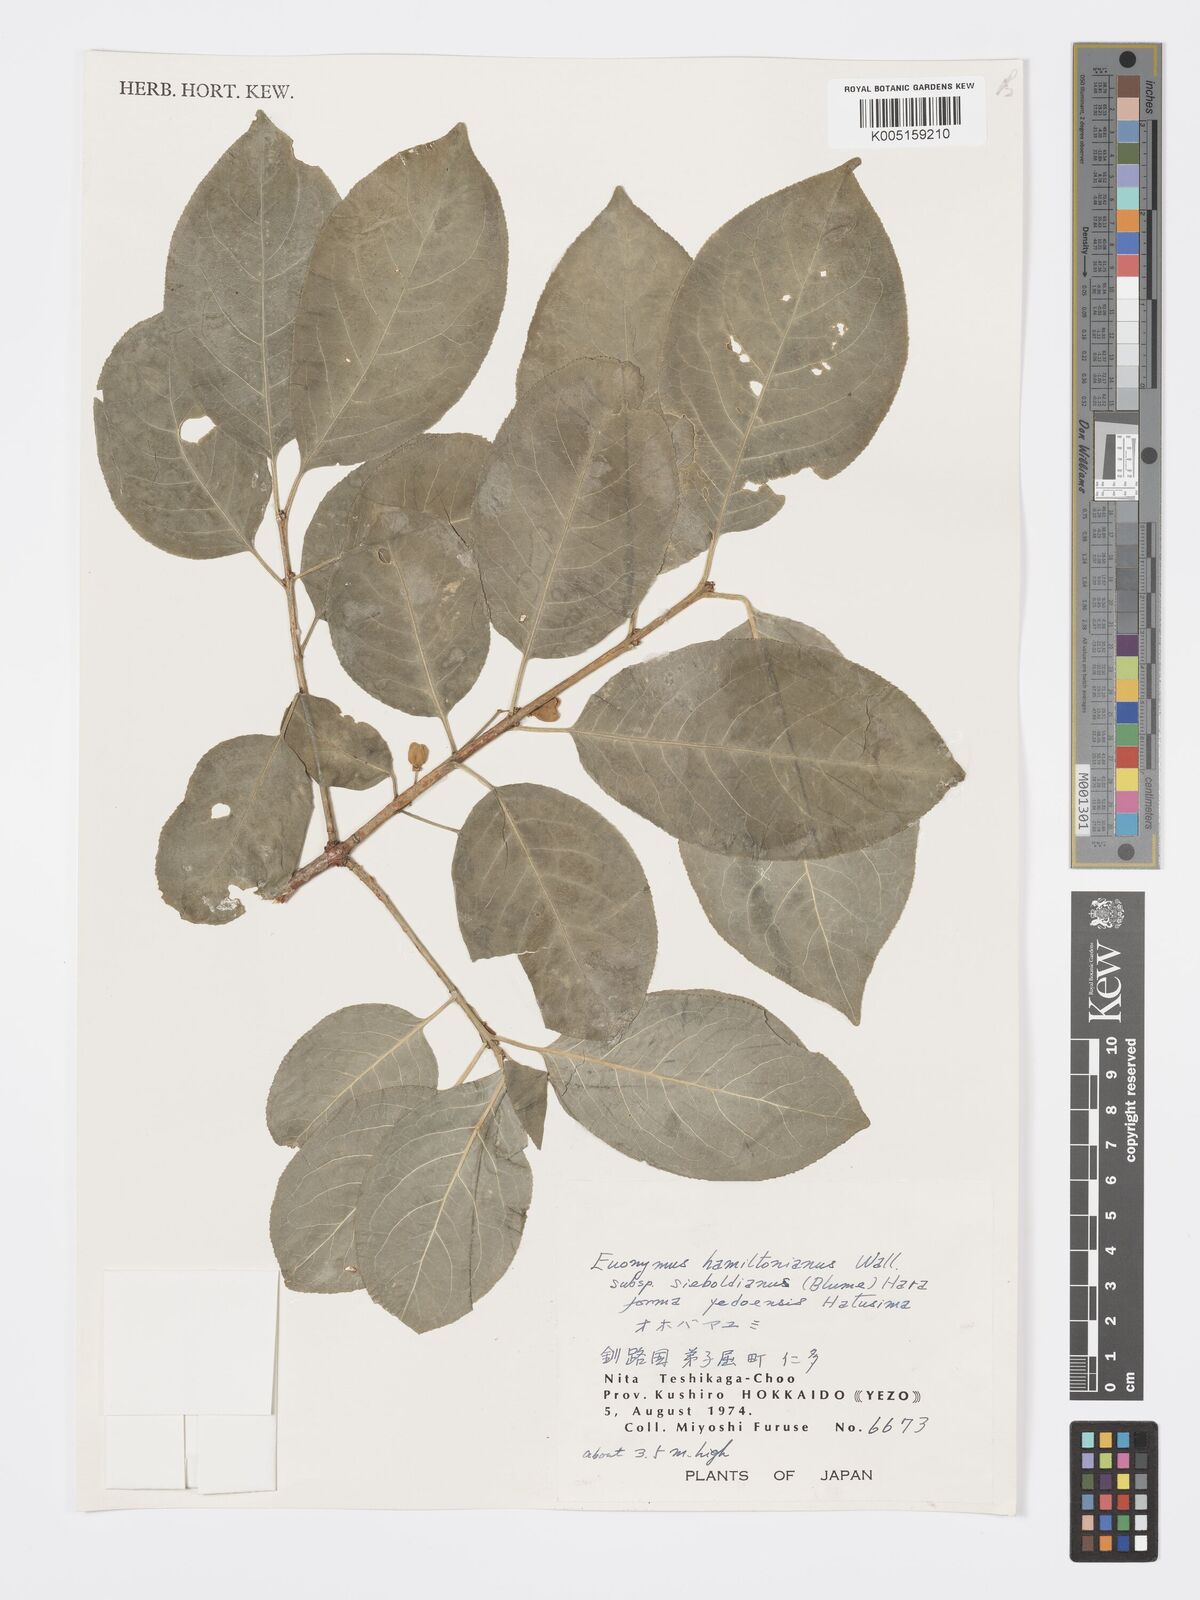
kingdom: Plantae
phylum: Tracheophyta
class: Magnoliopsida
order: Celastrales
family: Celastraceae
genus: Euonymus
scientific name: Euonymus hamiltonianus
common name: Hamilton's spindletree
